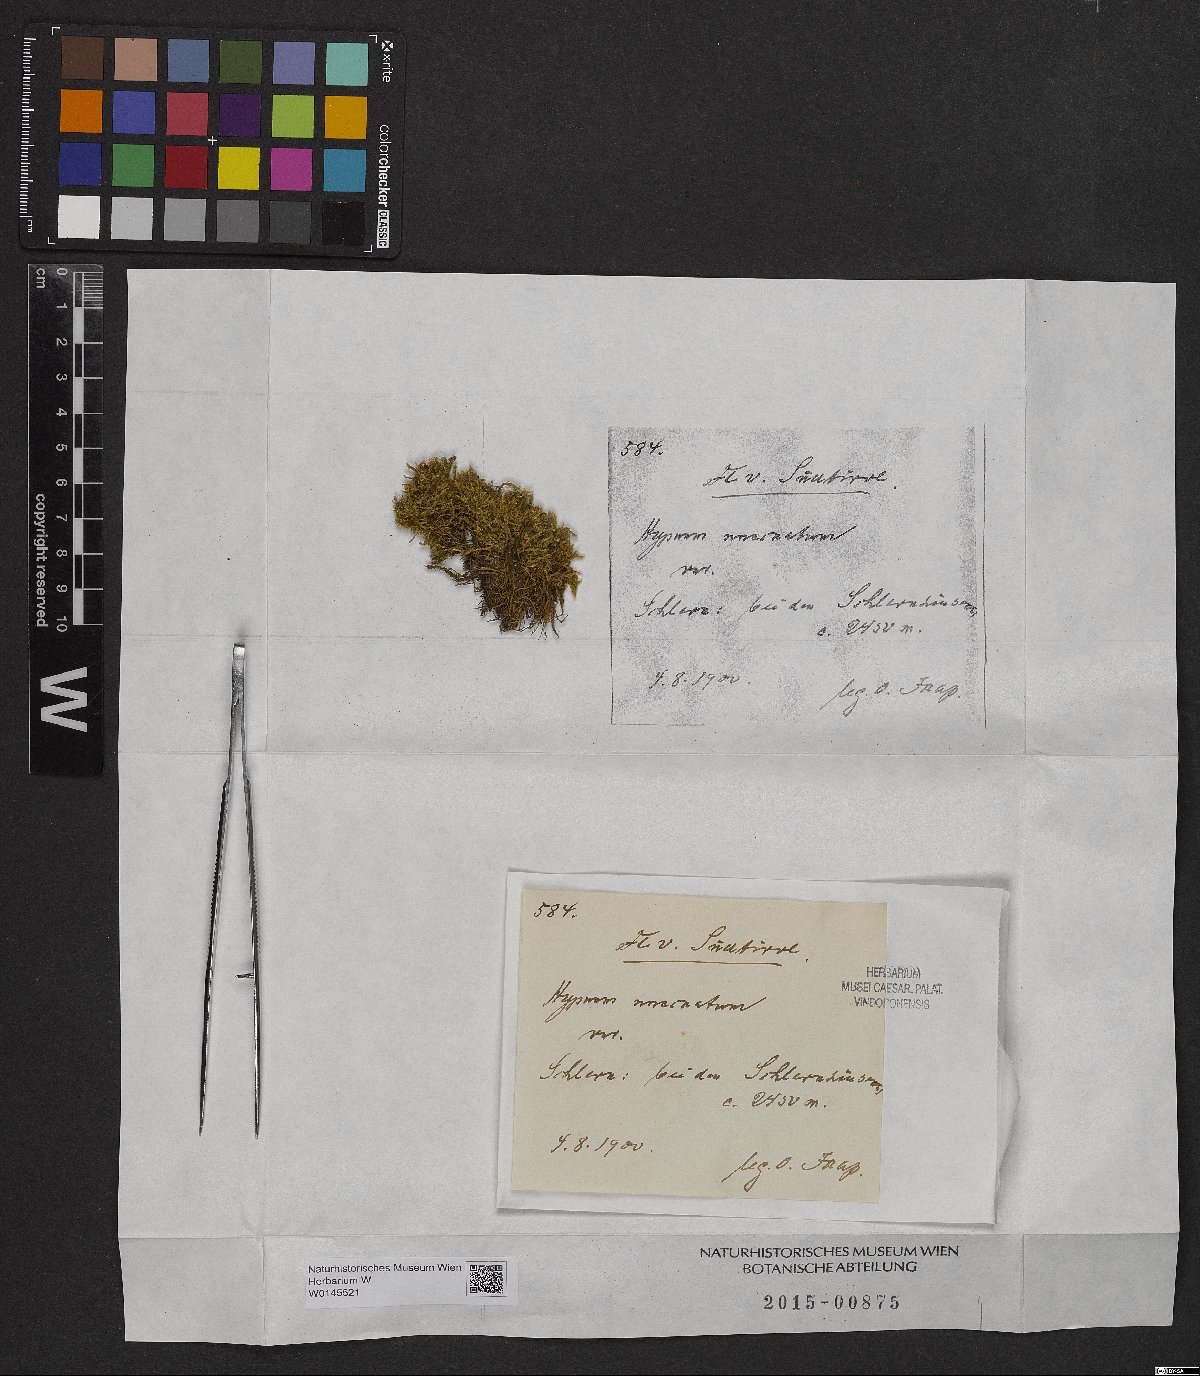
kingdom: Plantae
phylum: Bryophyta
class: Bryopsida
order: Hypnales
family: Scorpidiaceae
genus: Sanionia
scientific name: Sanionia uncinata
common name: Sickle moss
